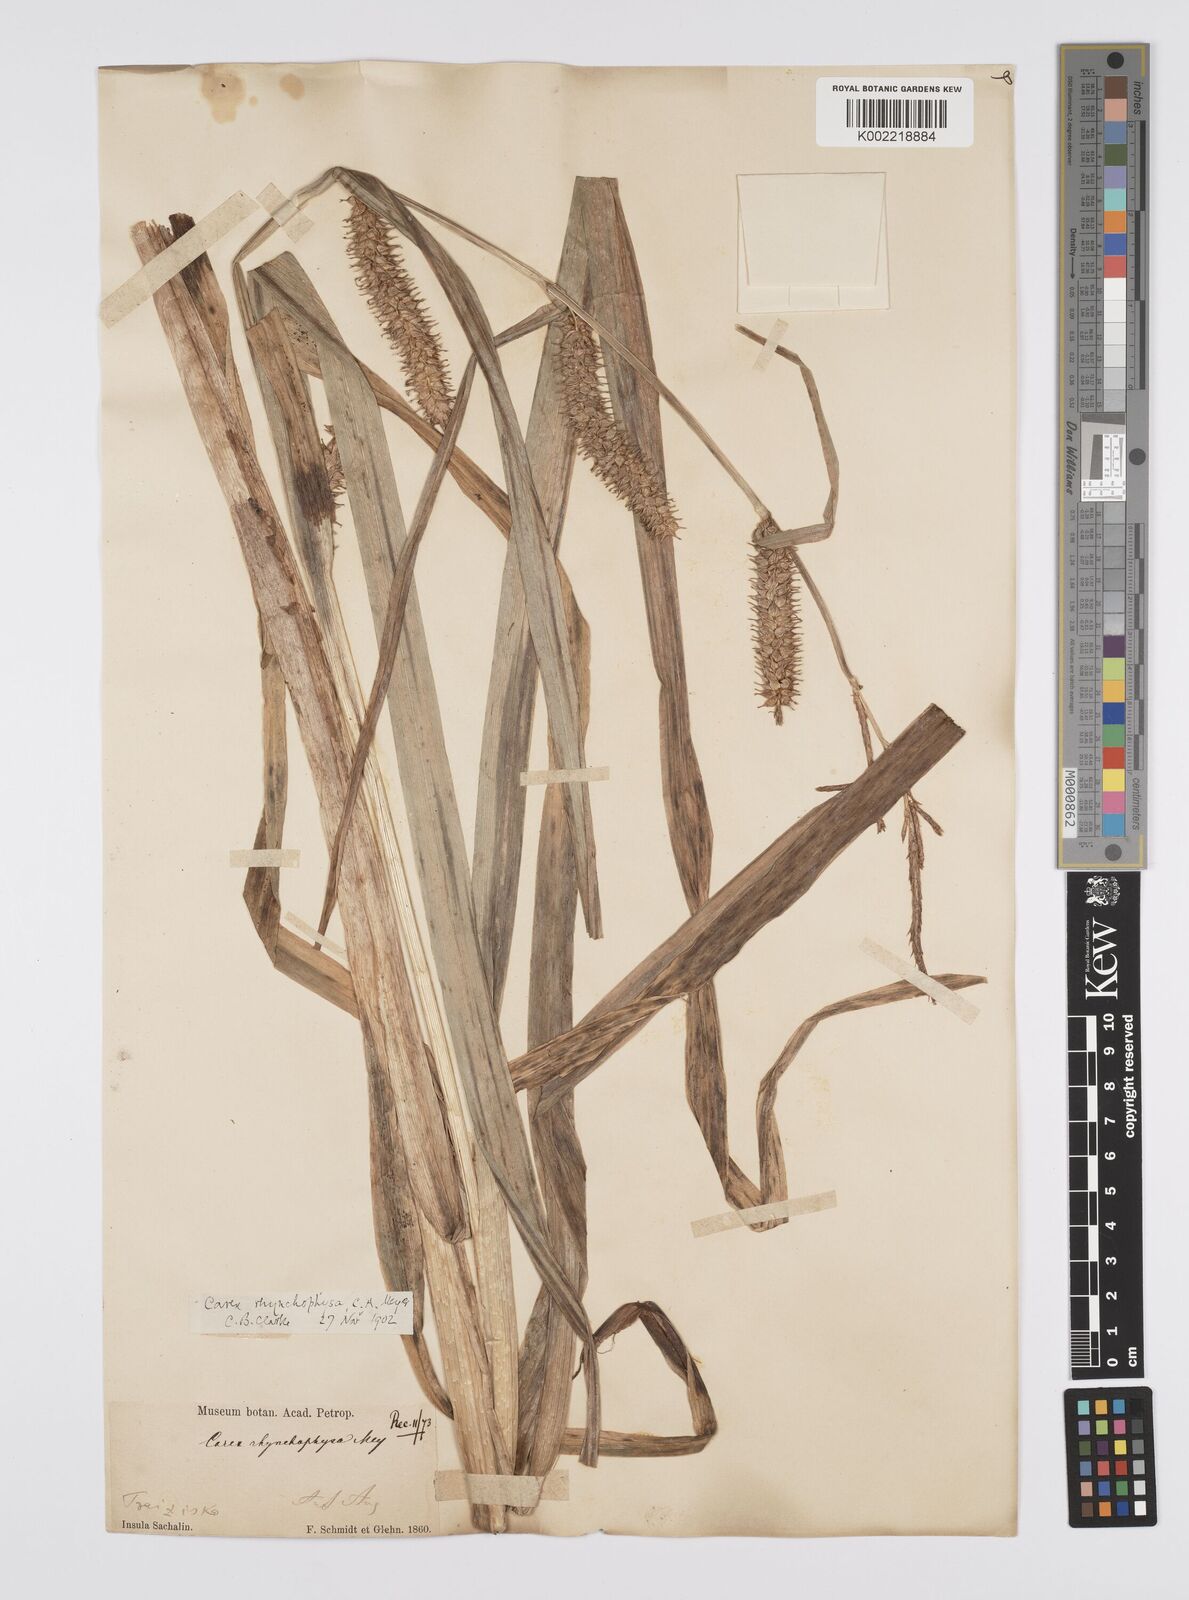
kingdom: Plantae
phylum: Tracheophyta
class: Liliopsida
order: Poales
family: Cyperaceae
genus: Carex
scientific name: Carex utriculata
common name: Beaked sedge
